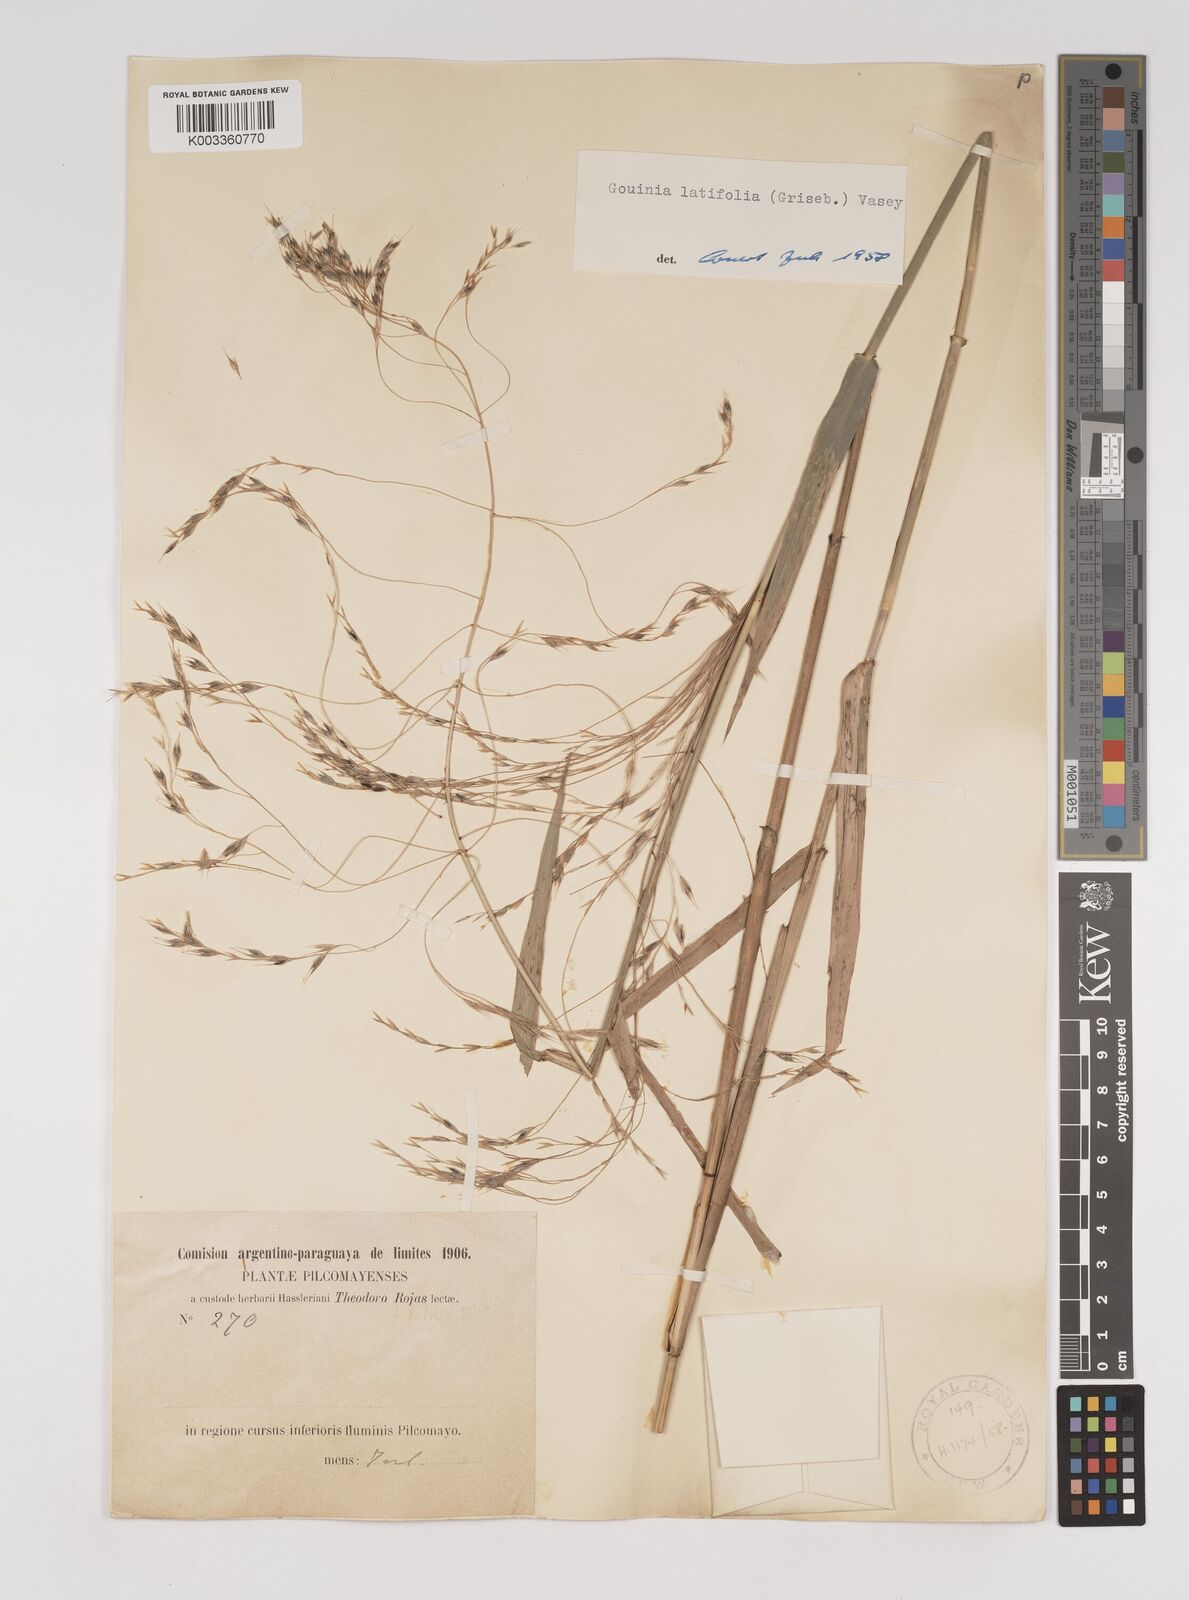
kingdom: Plantae
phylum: Tracheophyta
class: Liliopsida
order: Poales
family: Poaceae
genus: Gouinia
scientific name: Gouinia latifolia
